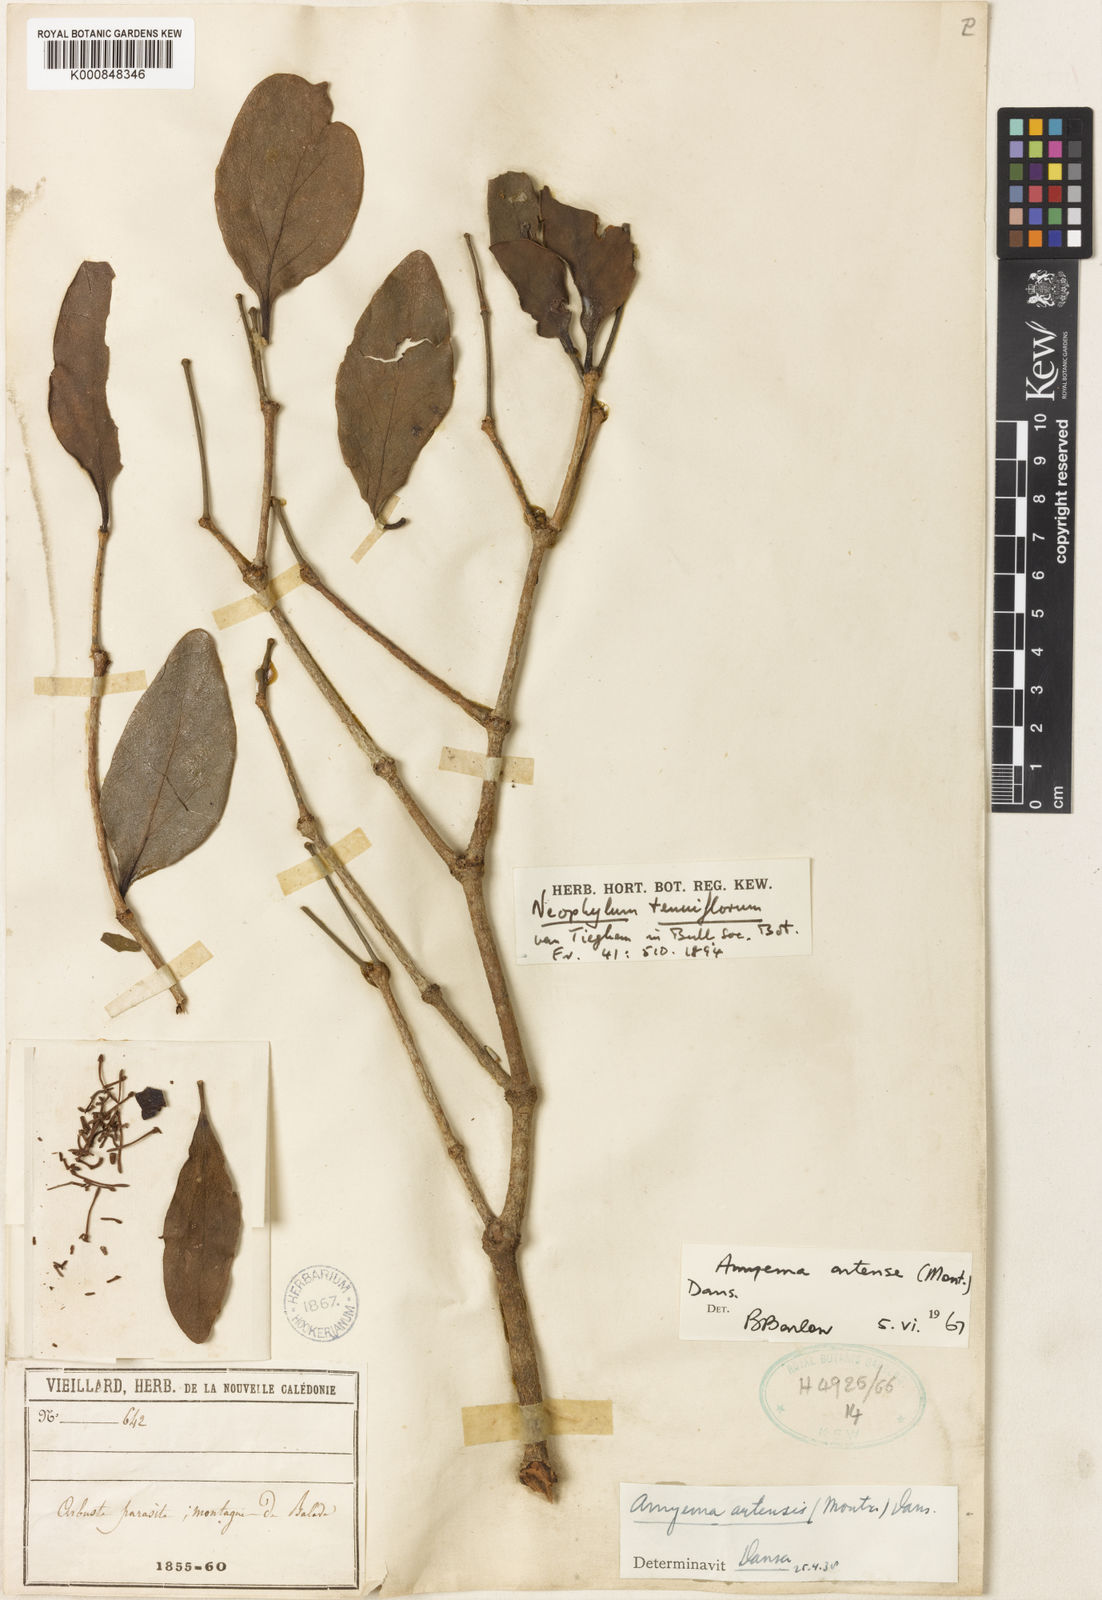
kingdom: Plantae
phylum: Tracheophyta
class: Magnoliopsida
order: Santalales
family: Loranthaceae
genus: Amyema
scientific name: Amyema artensis
